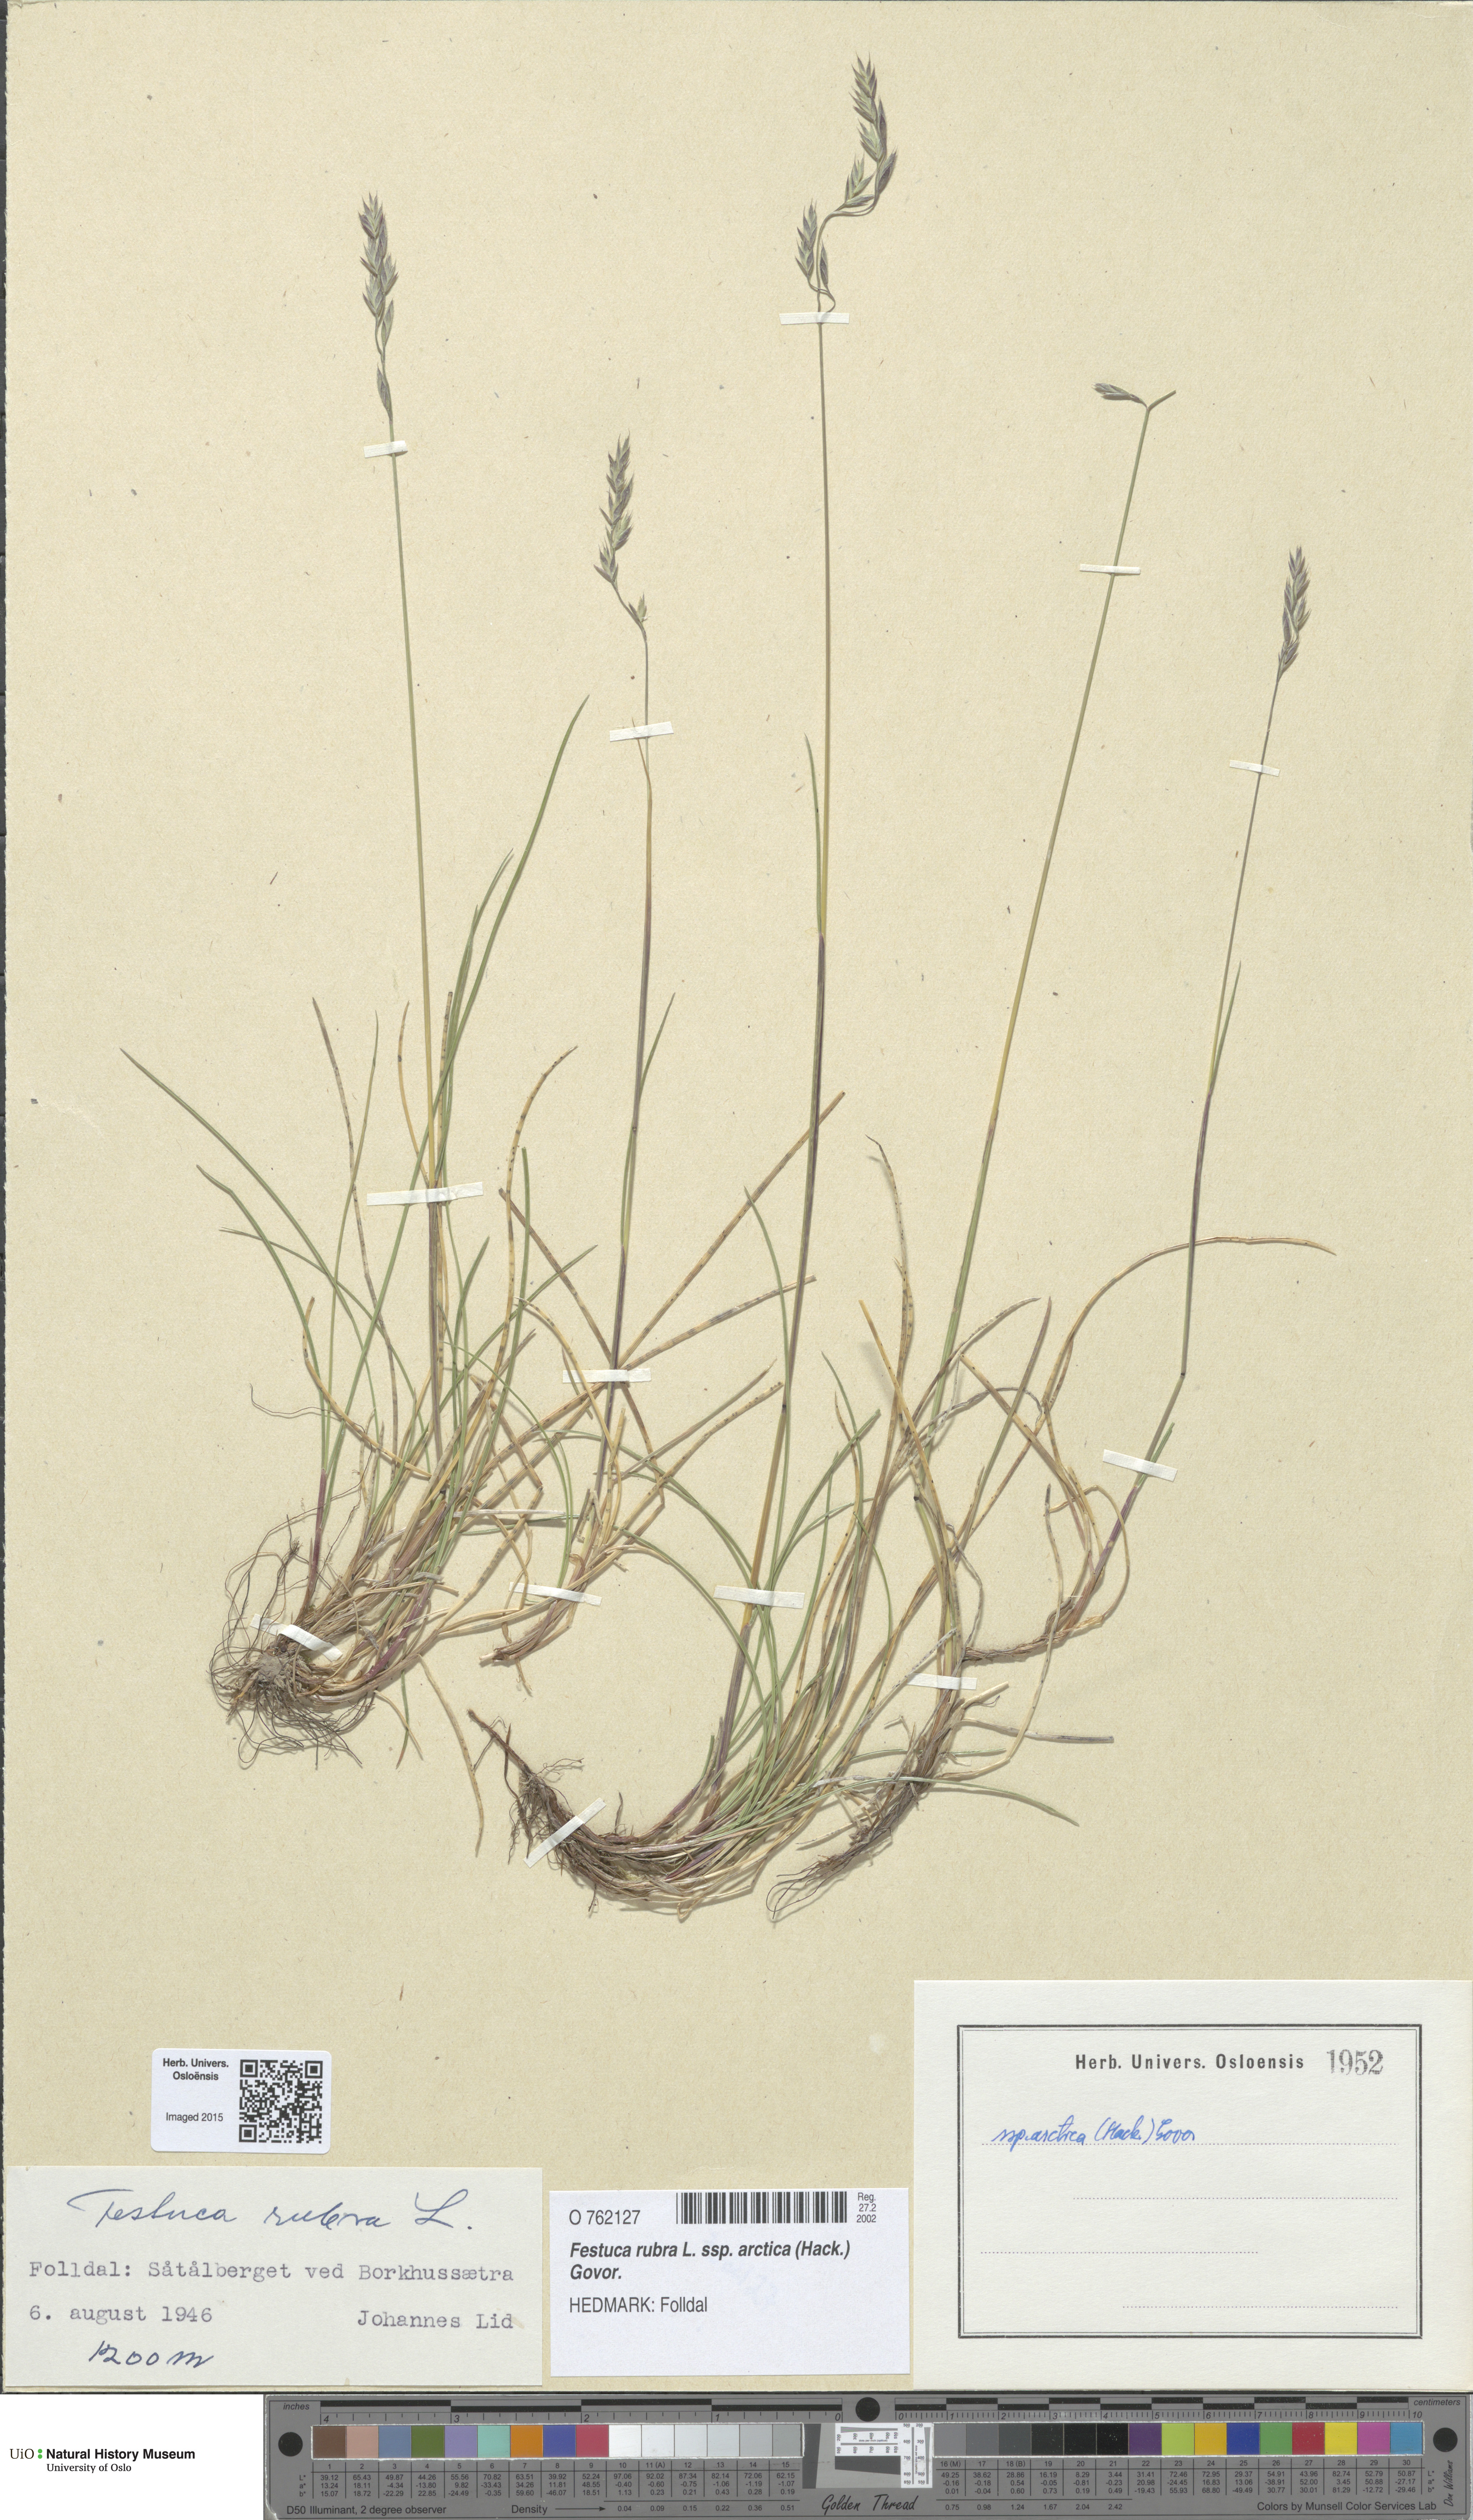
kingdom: Plantae
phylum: Tracheophyta
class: Liliopsida
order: Poales
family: Poaceae
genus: Festuca
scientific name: Festuca richardsonii
